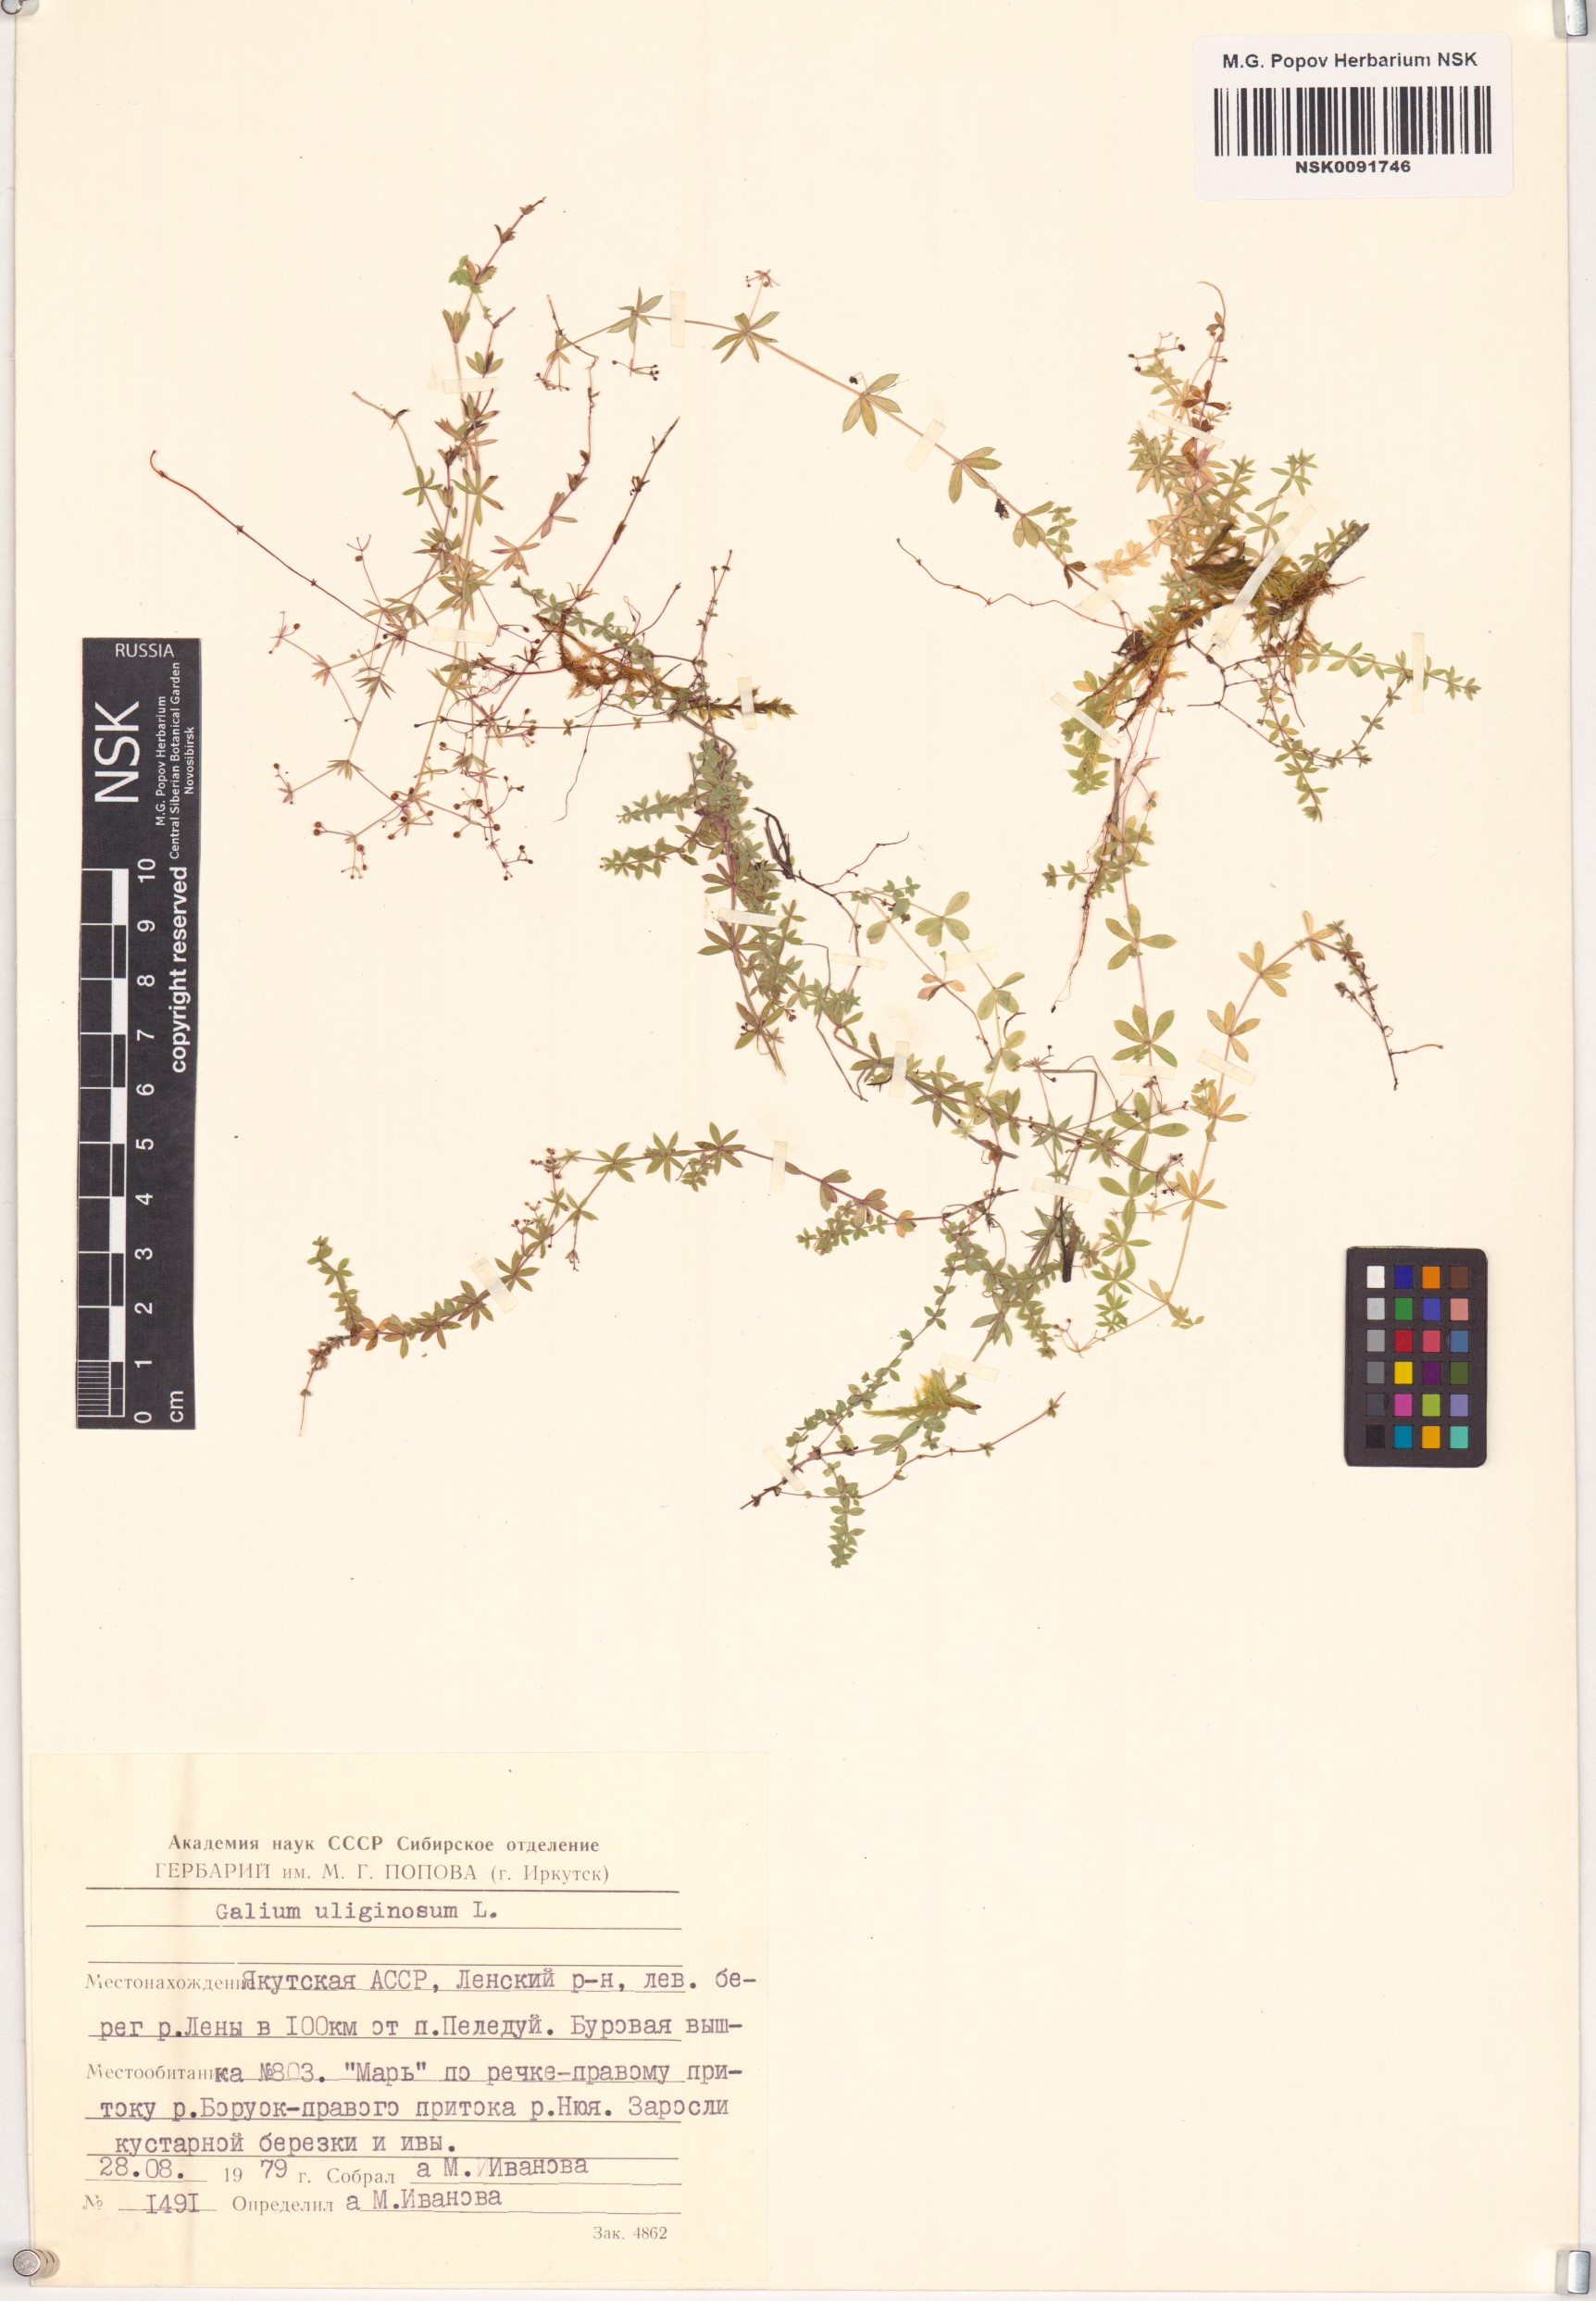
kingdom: Plantae
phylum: Tracheophyta
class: Magnoliopsida
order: Gentianales
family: Rubiaceae
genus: Galium
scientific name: Galium uliginosum
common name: Fen bedstraw
